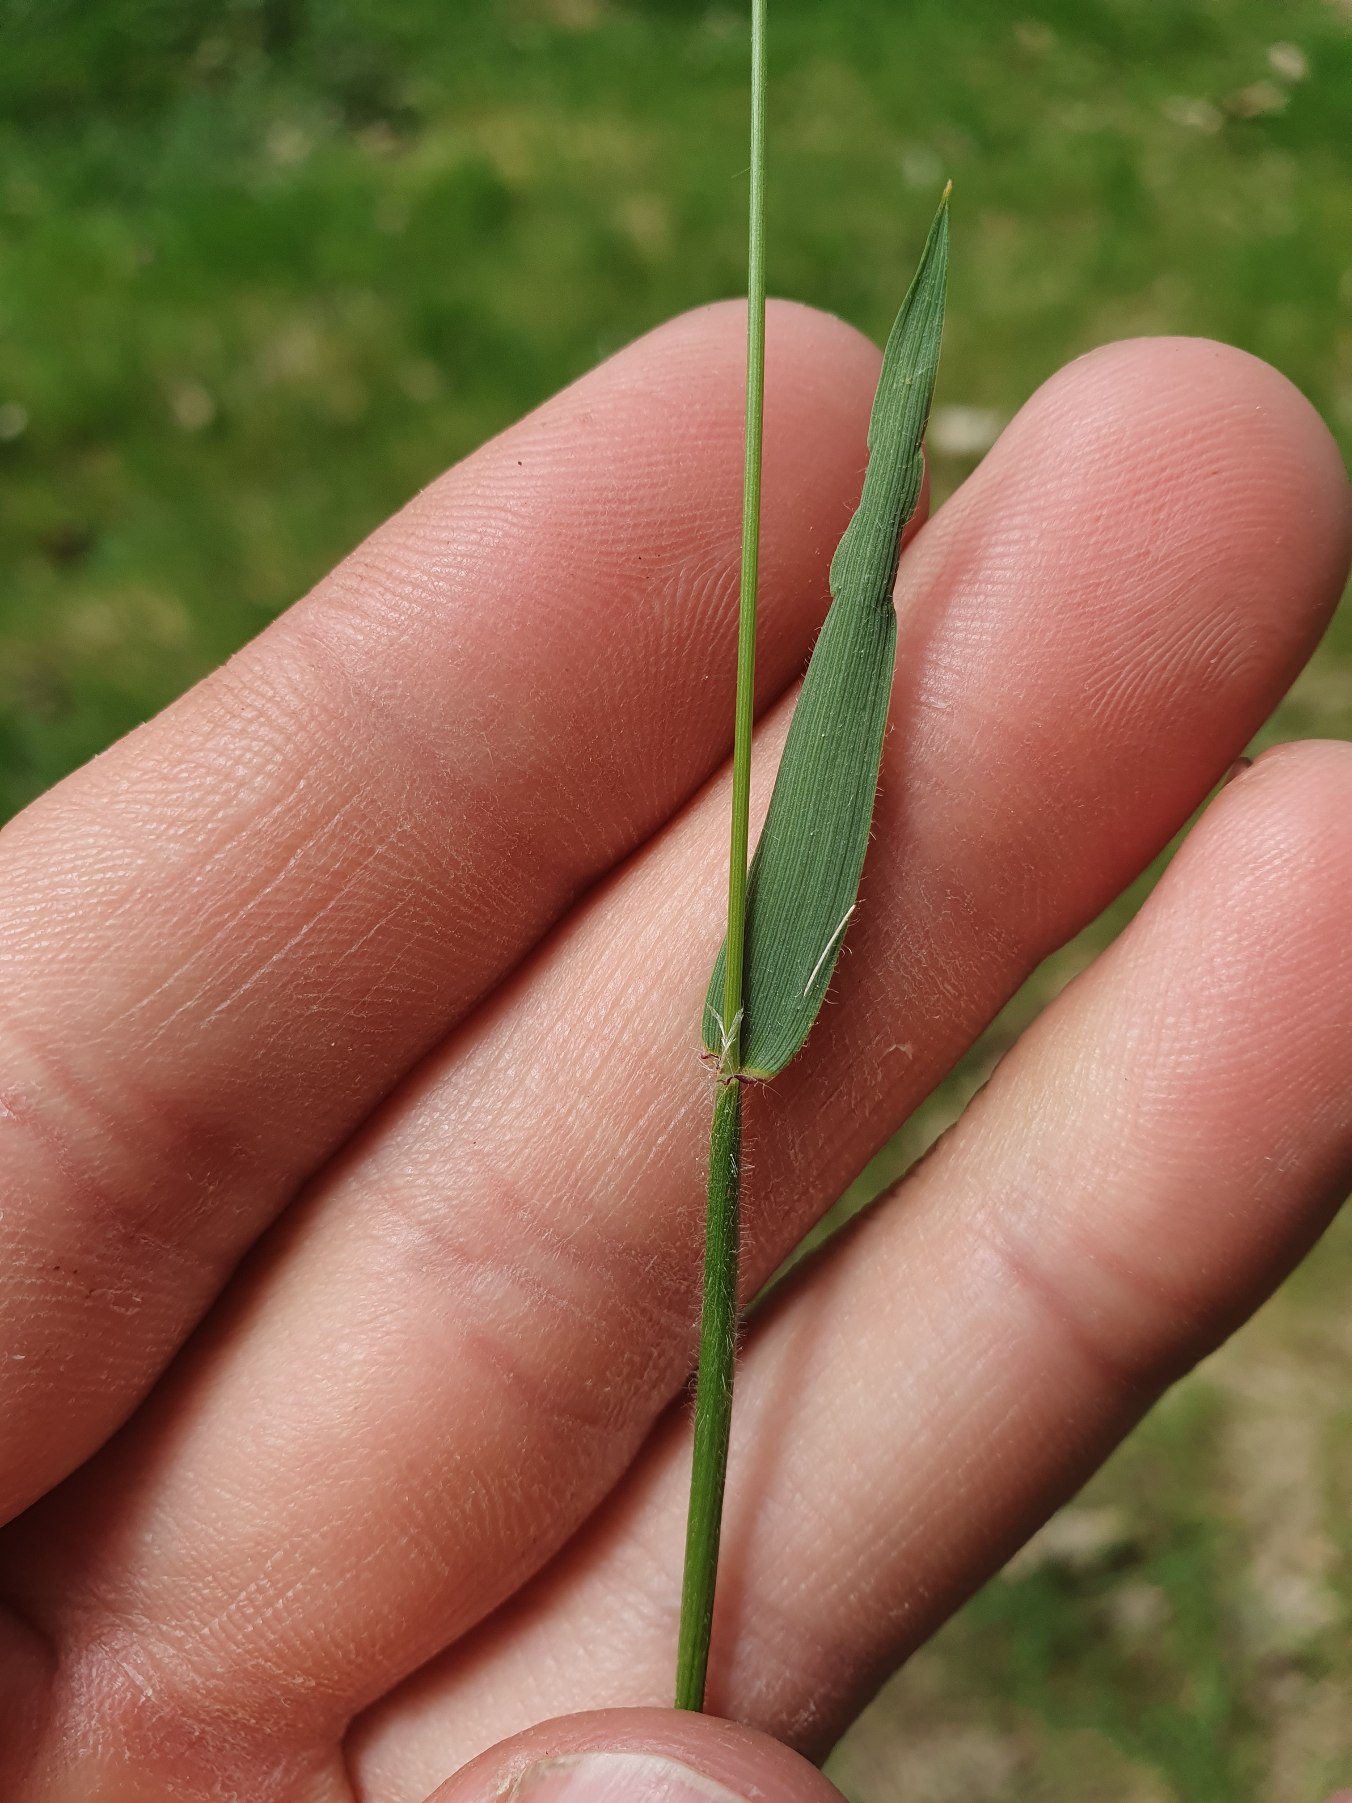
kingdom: Plantae
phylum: Tracheophyta
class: Liliopsida
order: Poales
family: Poaceae
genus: Anthoxanthum
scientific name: Anthoxanthum odoratum
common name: Vellugtende gulaks
